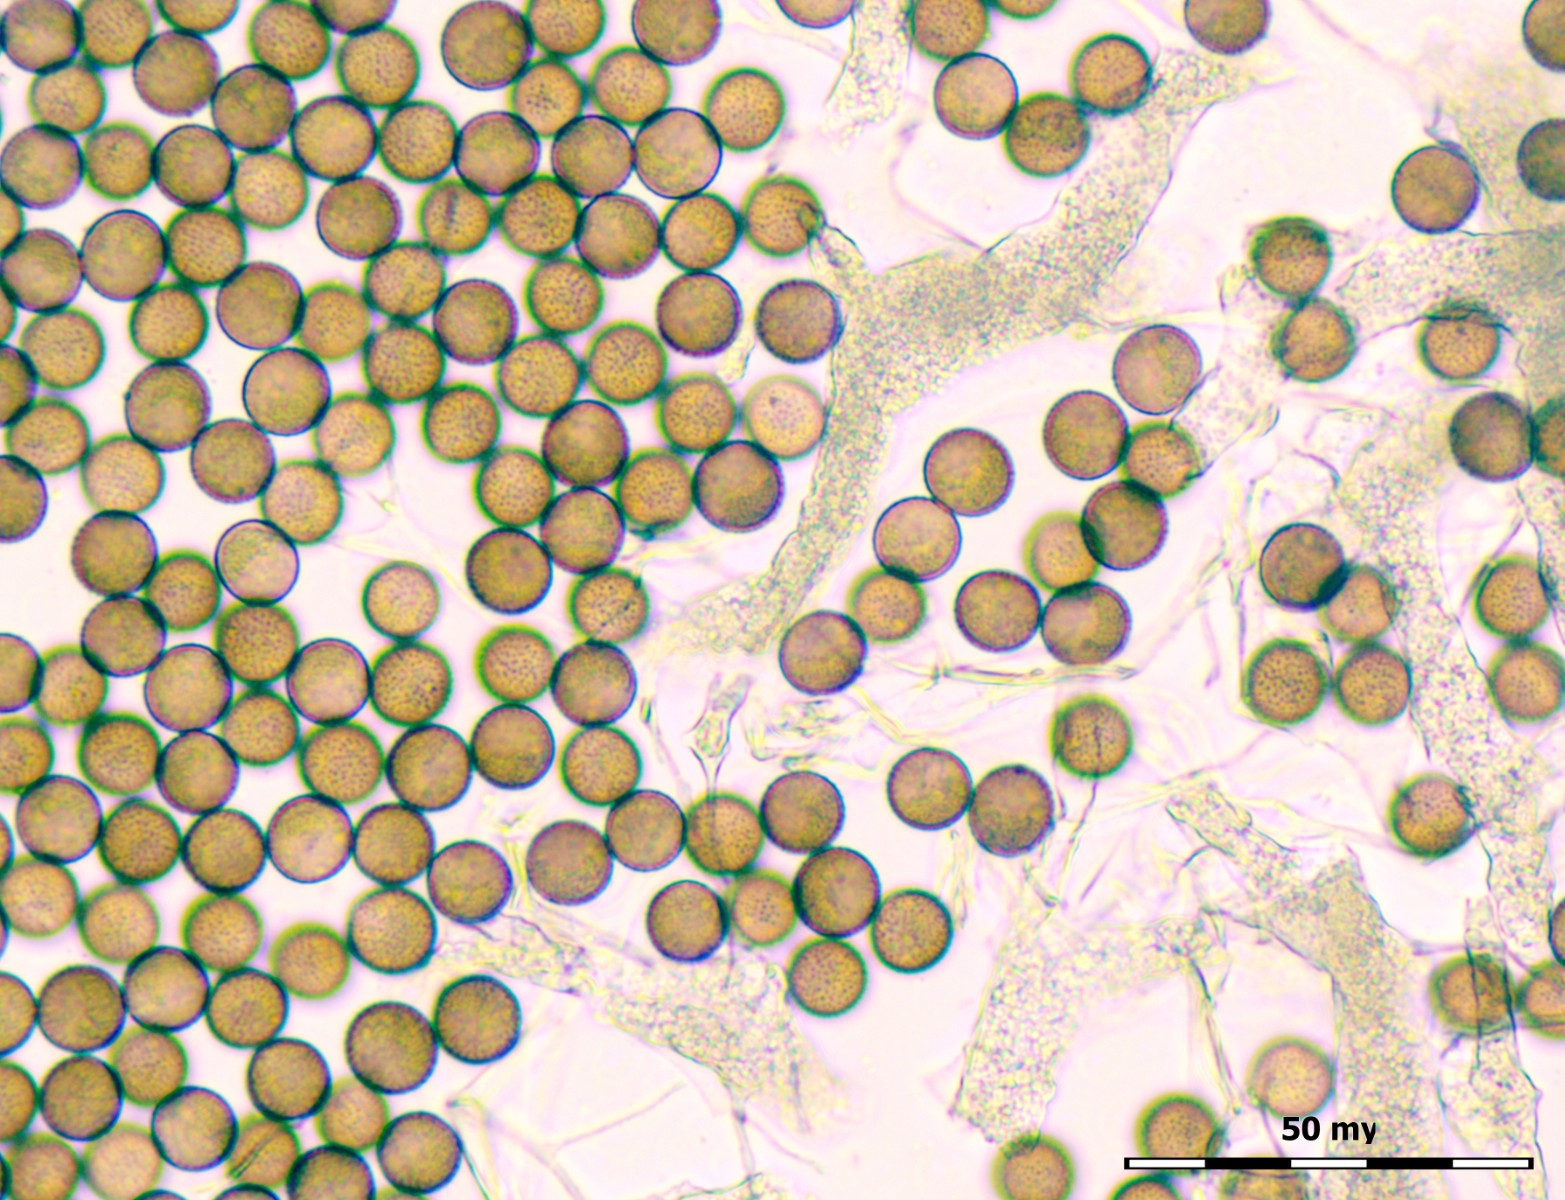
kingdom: Protozoa
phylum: Mycetozoa
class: Myxomycetes
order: Physarales
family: Physaraceae
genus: Badhamia
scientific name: Badhamia foliicola
